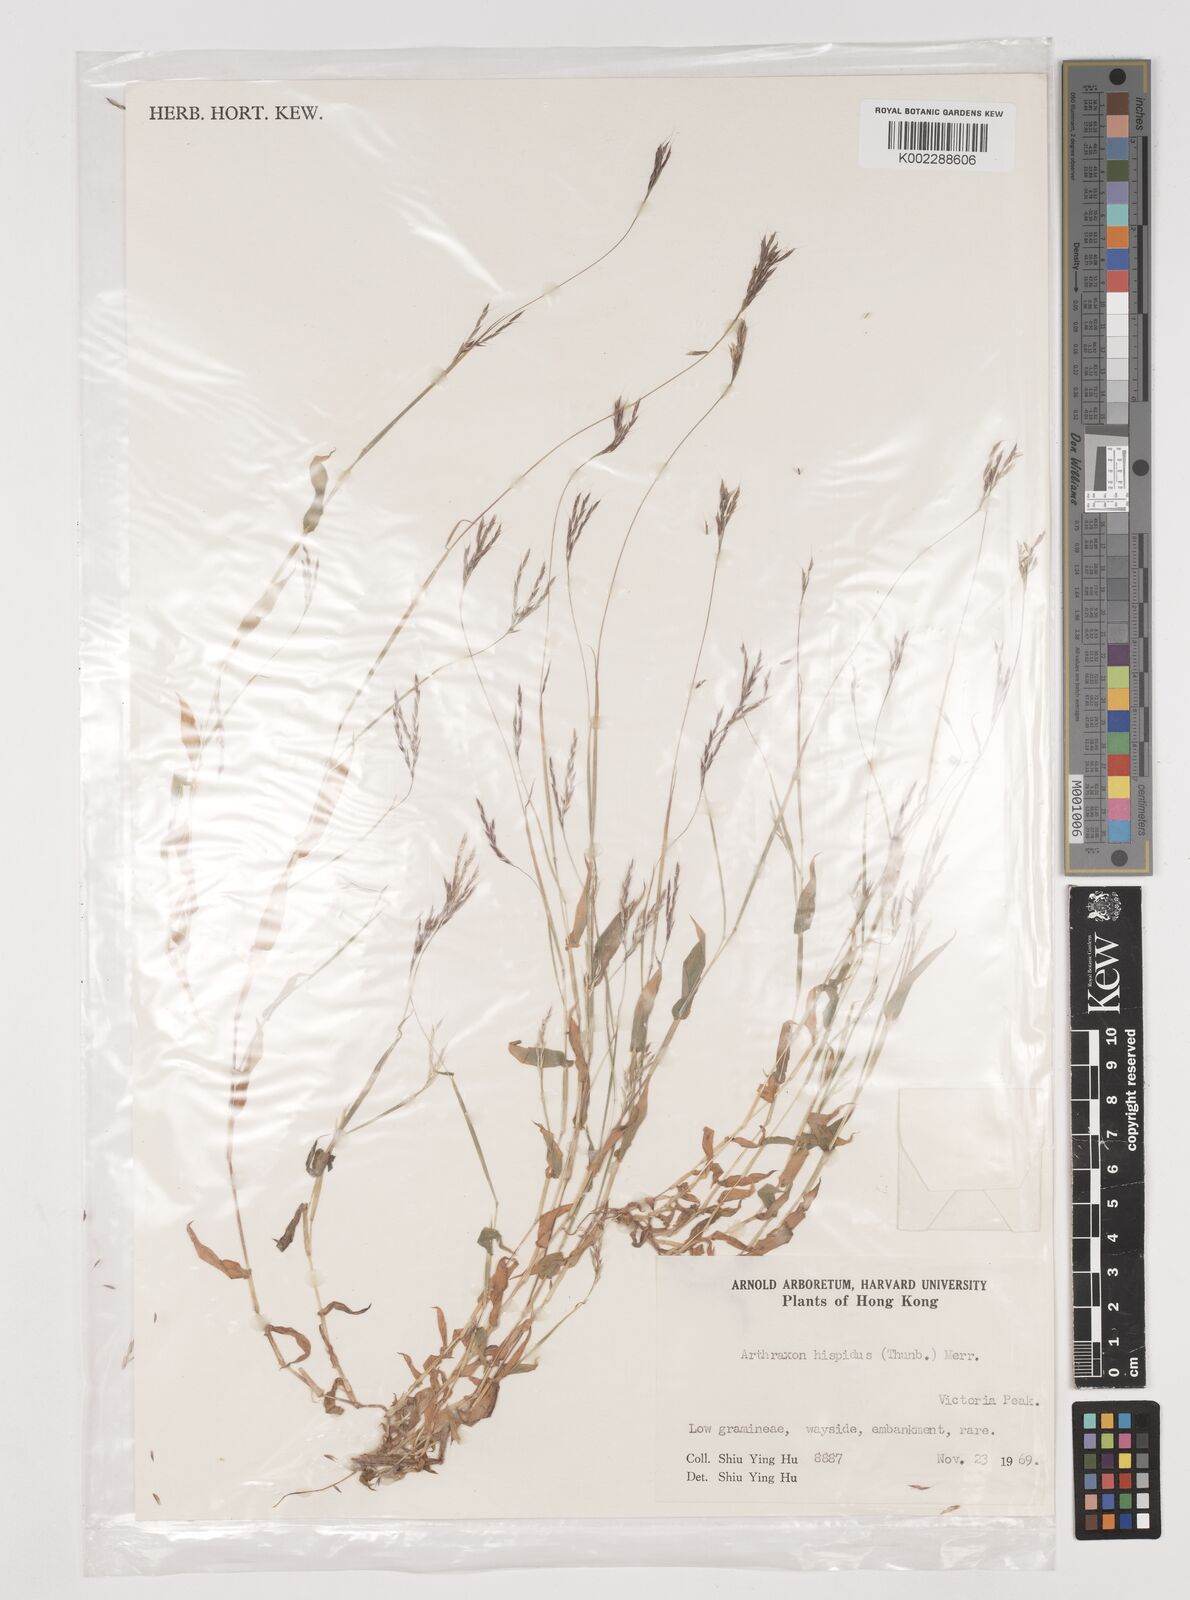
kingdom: Plantae
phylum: Tracheophyta
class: Liliopsida
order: Poales
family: Poaceae
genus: Arthraxon
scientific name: Arthraxon hispidus
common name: Small carpgrass
